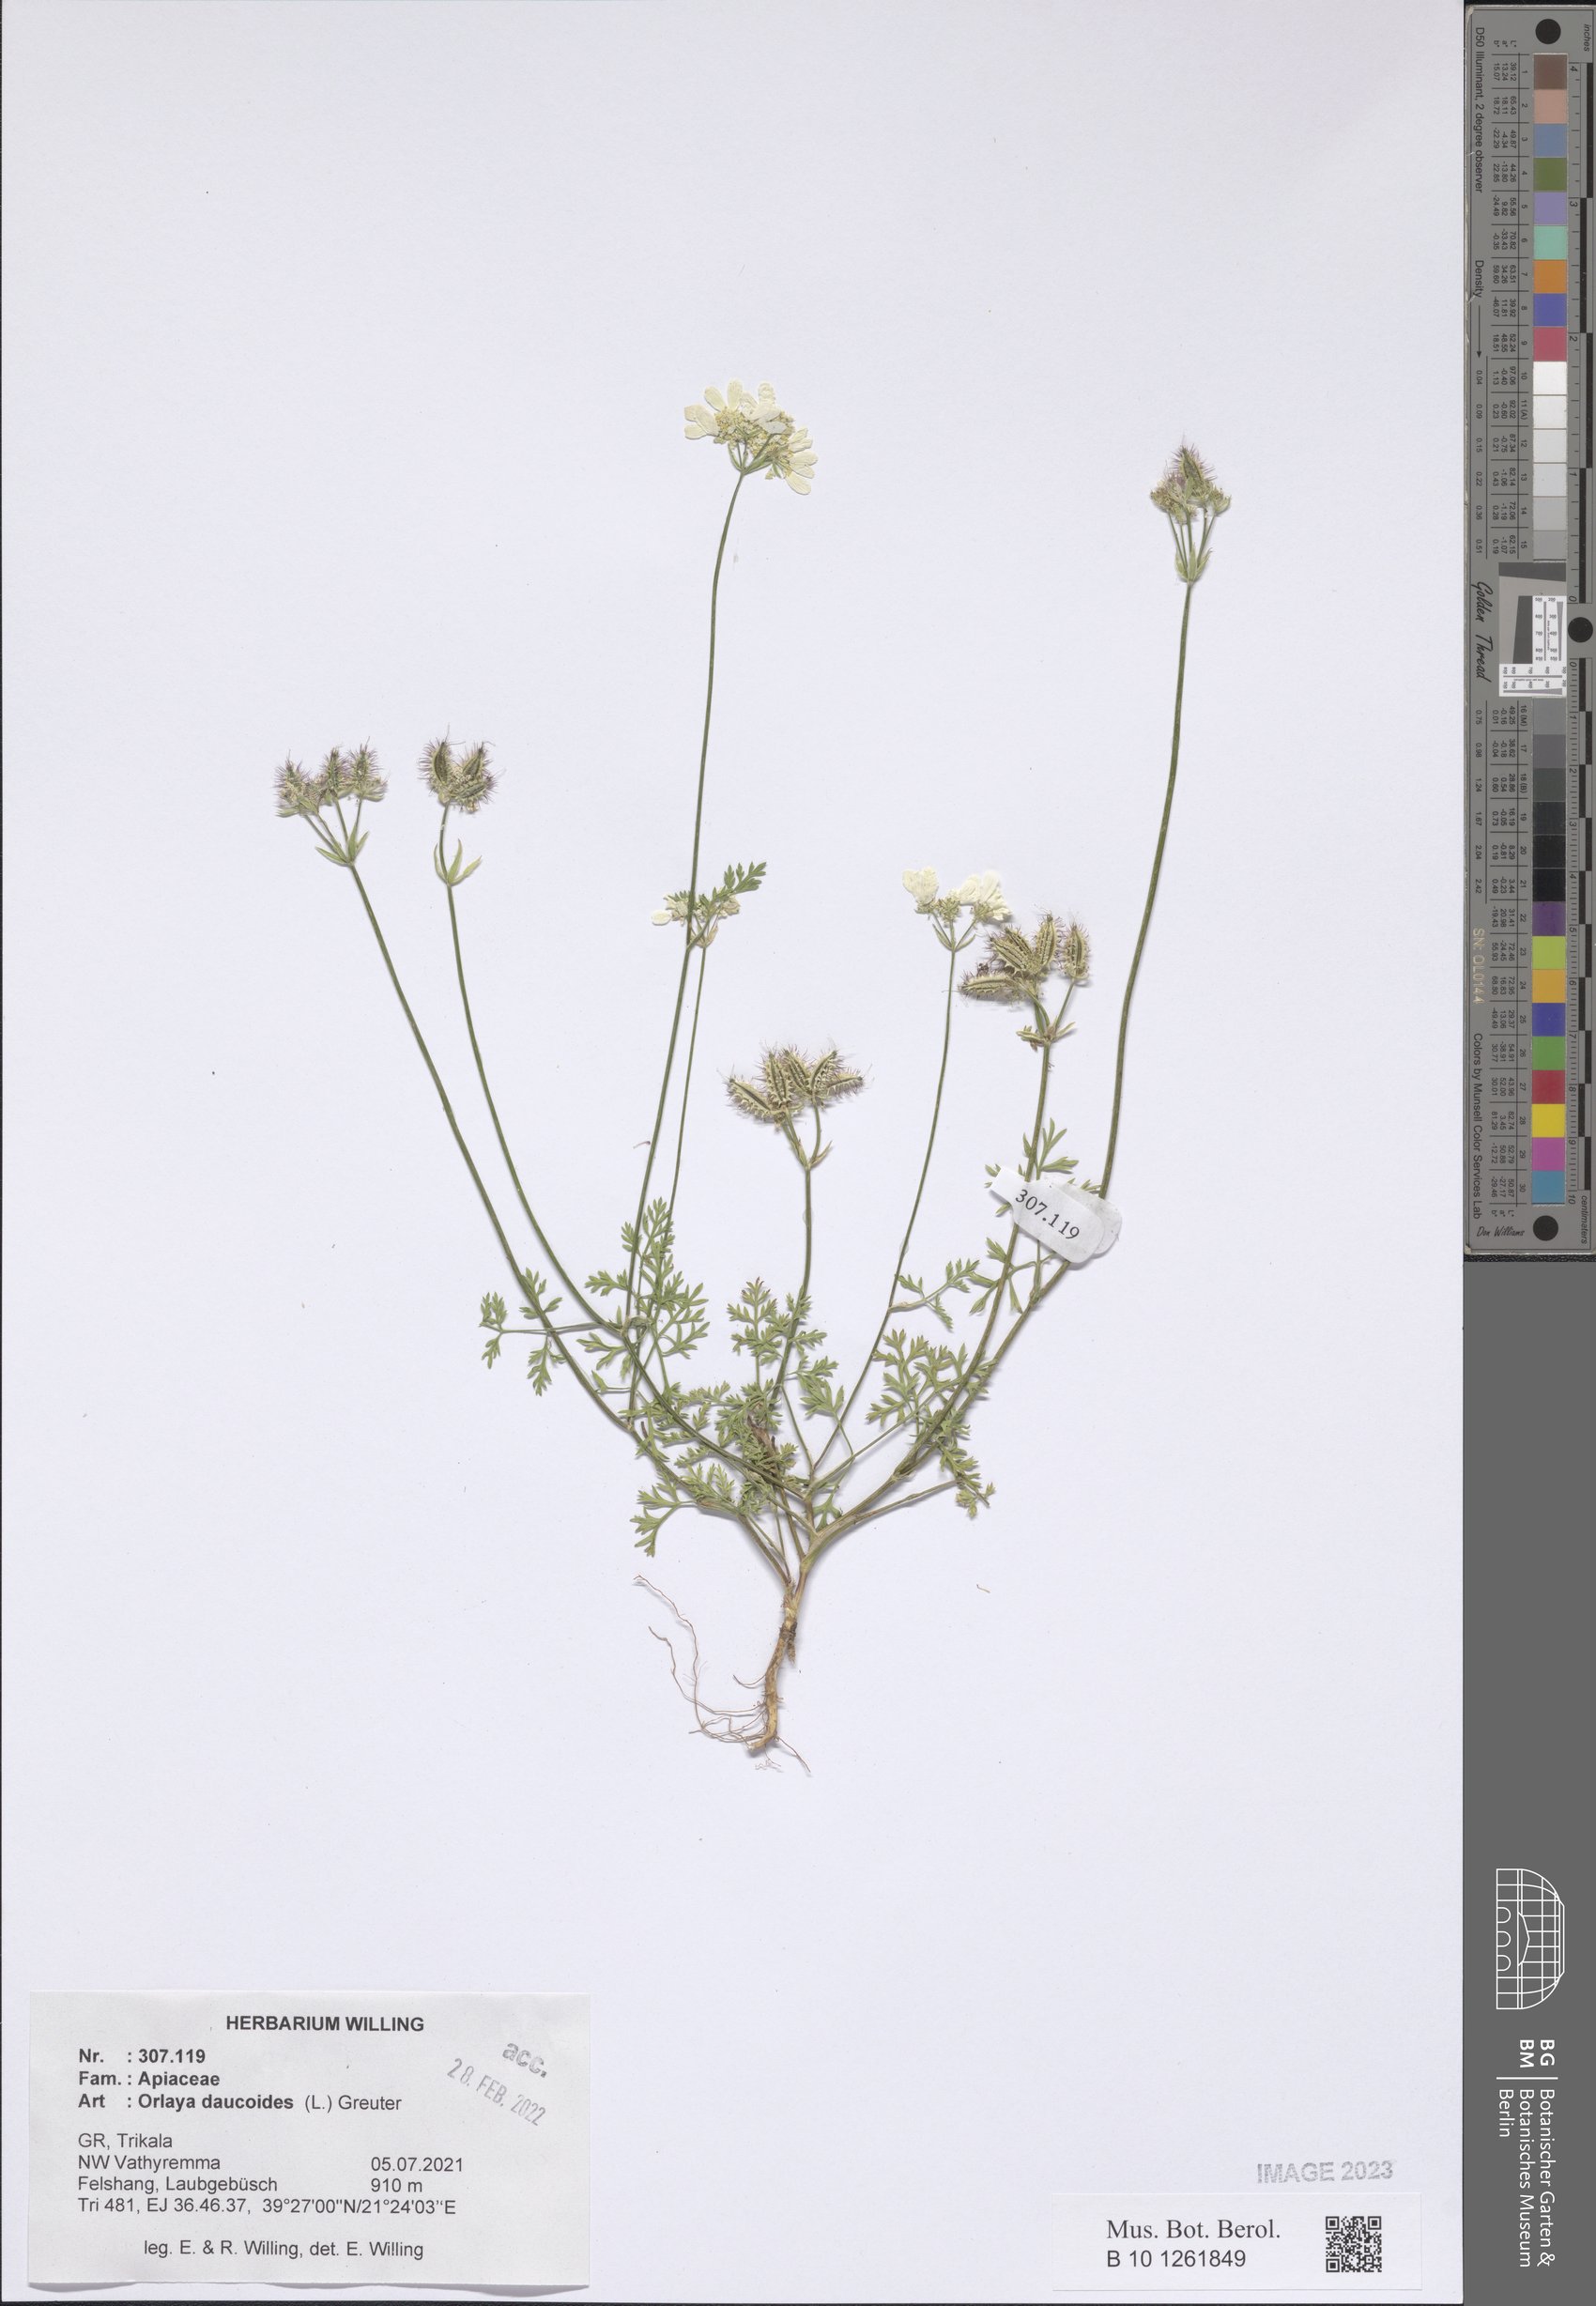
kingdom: Plantae
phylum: Tracheophyta
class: Magnoliopsida
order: Apiales
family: Apiaceae
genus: Orlaya
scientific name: Orlaya daucoides
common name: Flat-fruit orlaya
